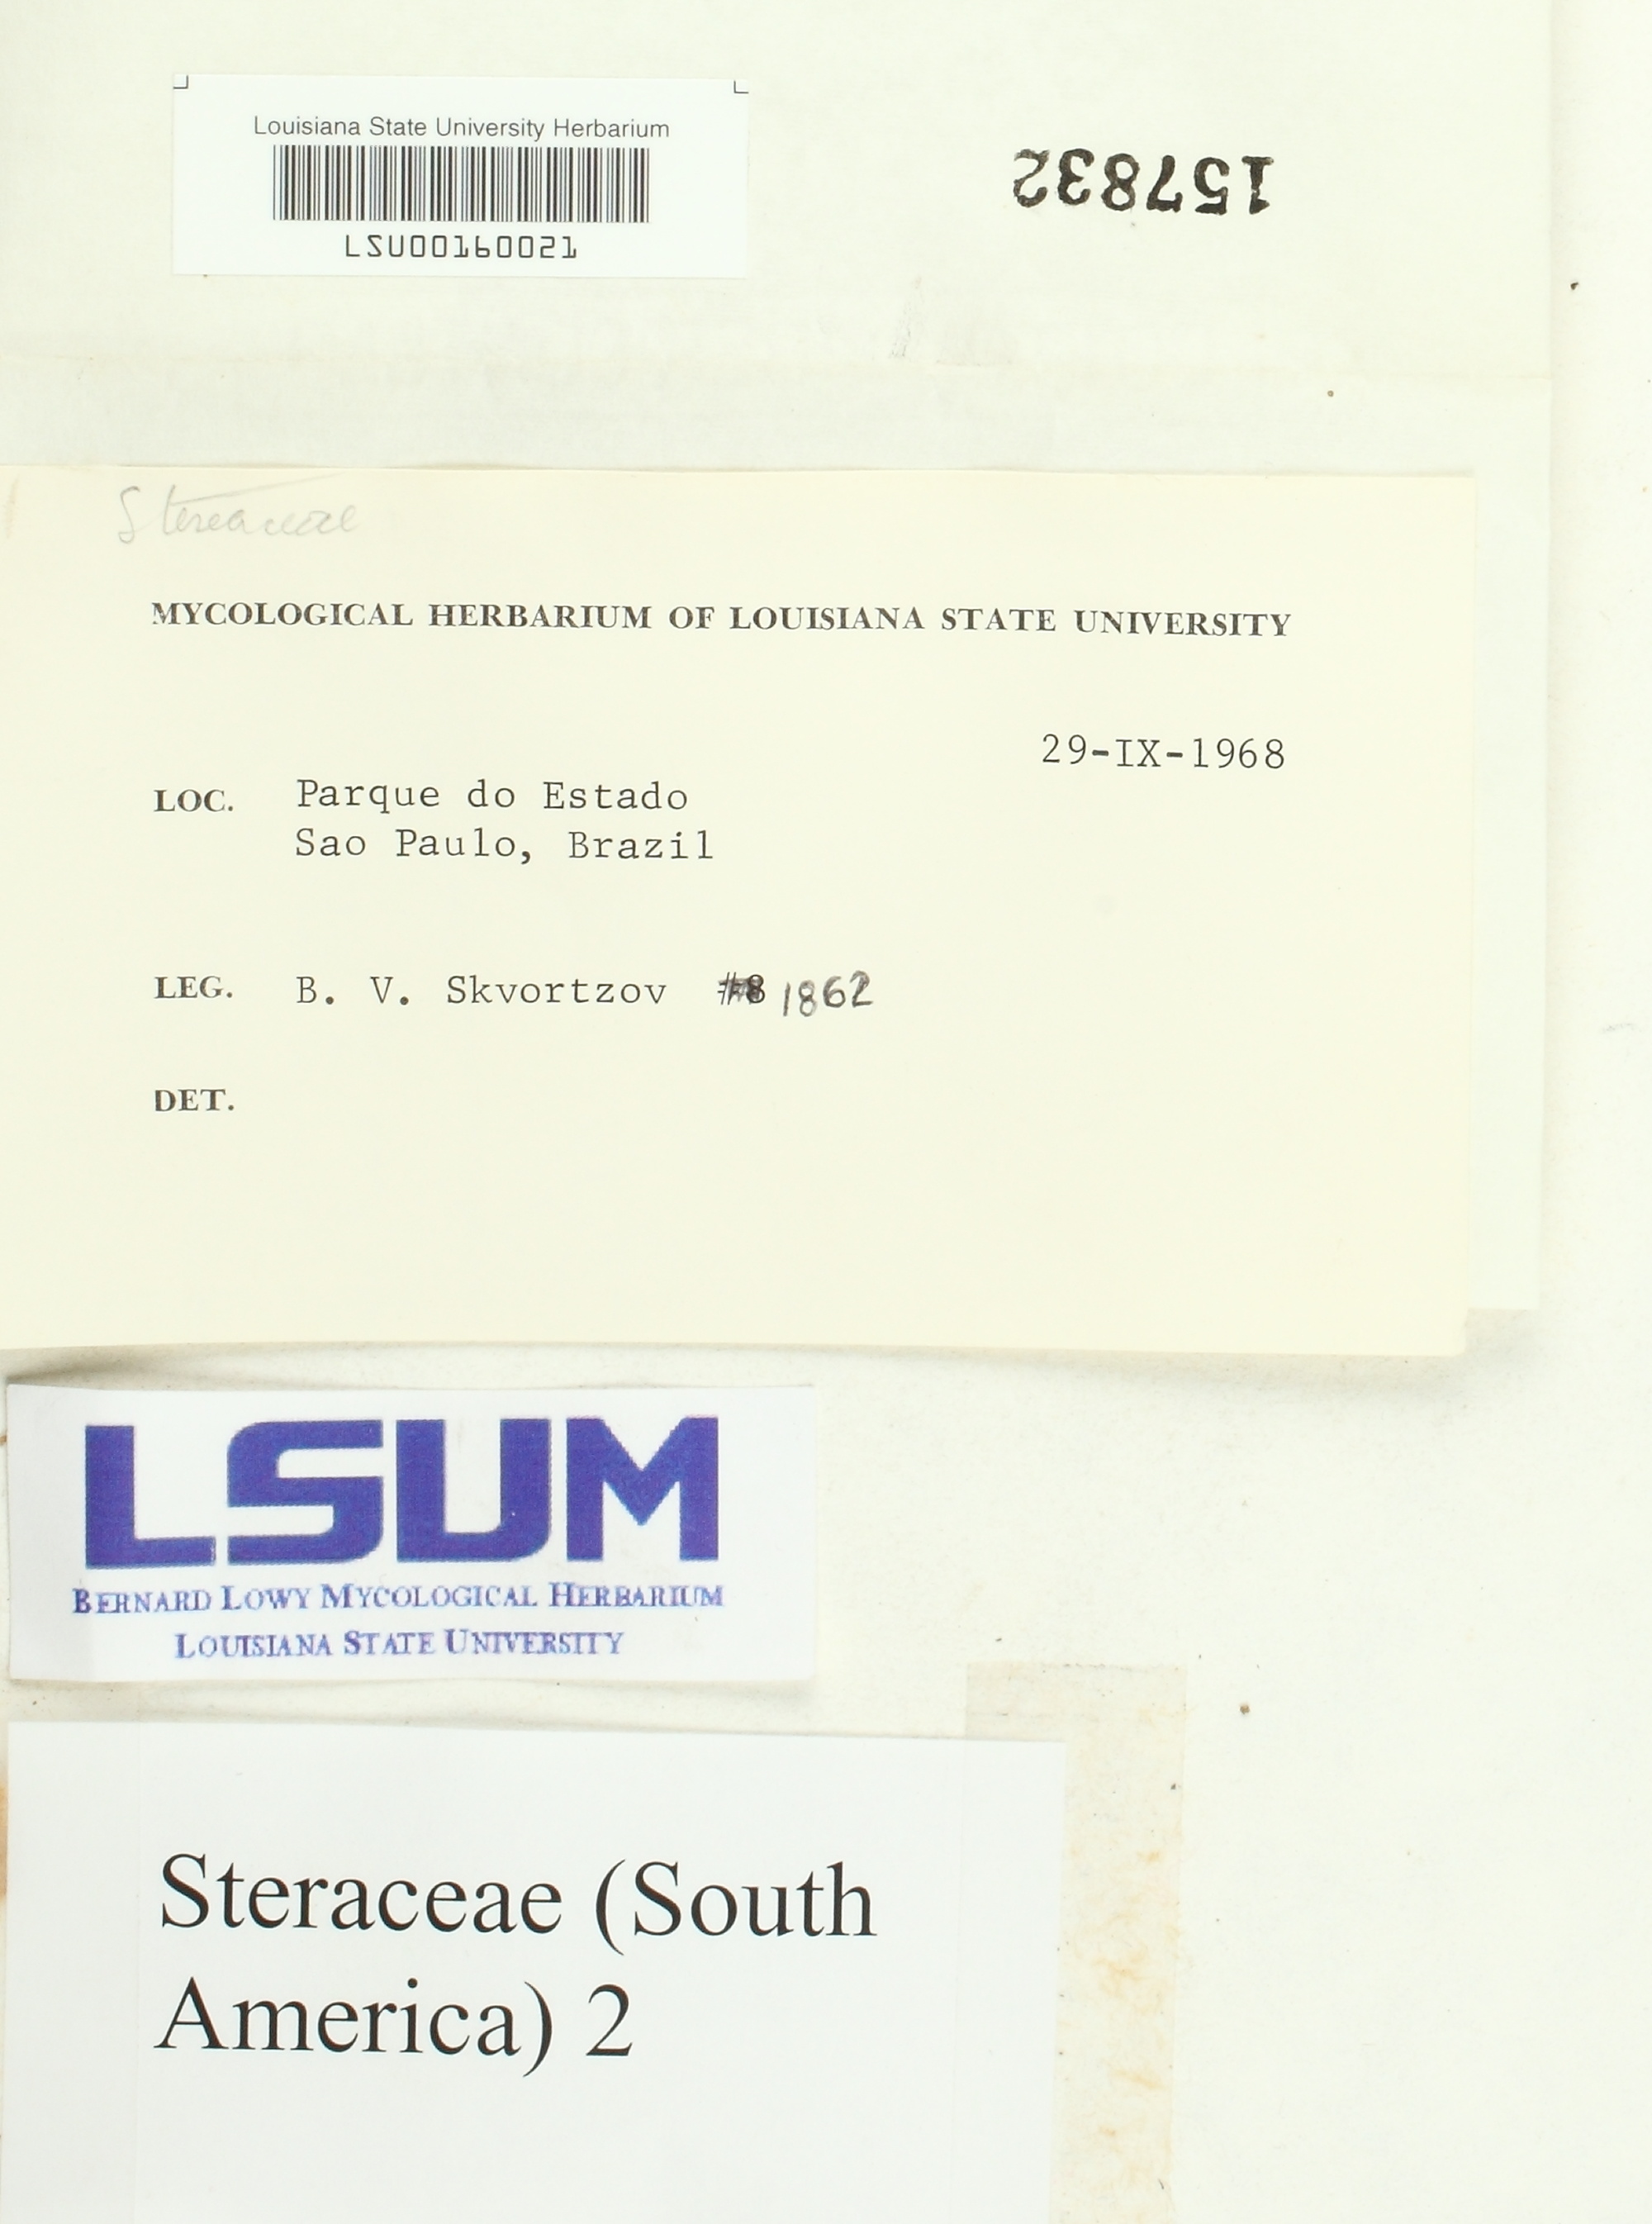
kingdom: Fungi
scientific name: Fungi
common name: Fungi
